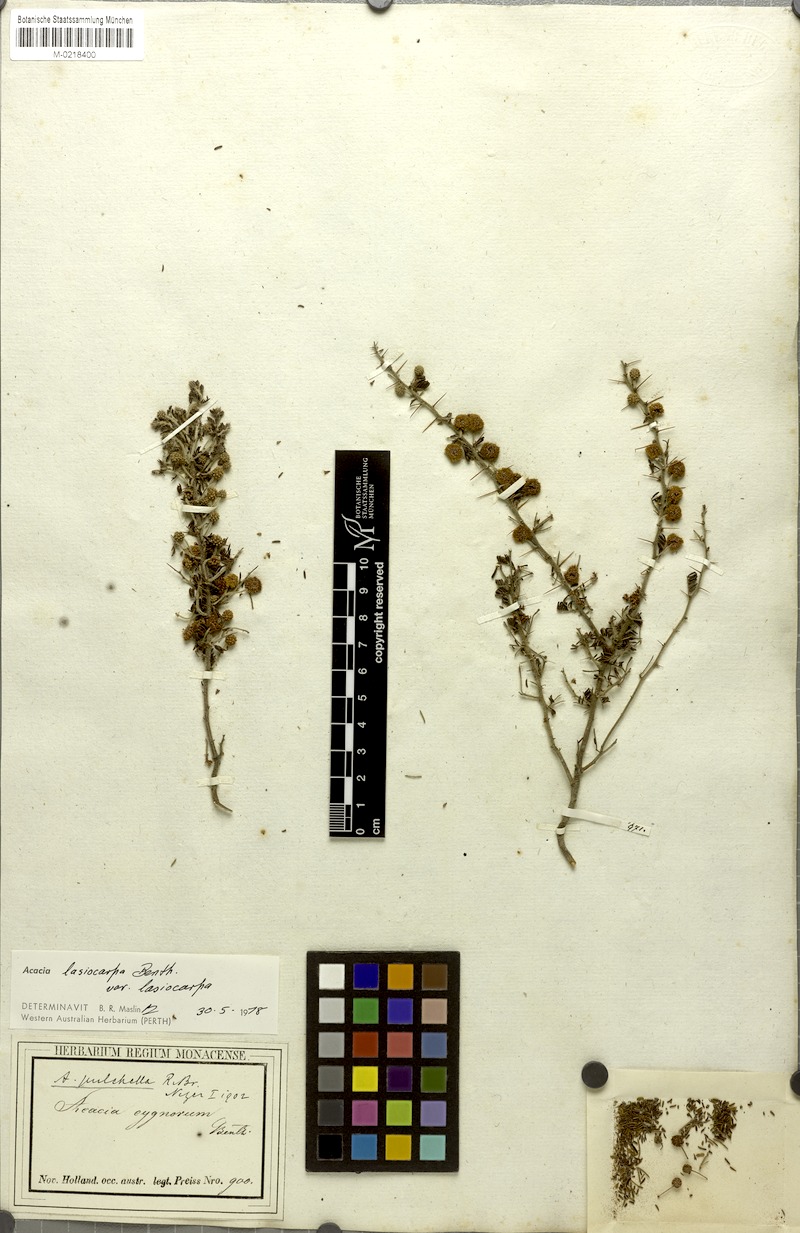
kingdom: Plantae
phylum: Tracheophyta
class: Magnoliopsida
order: Fabales
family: Fabaceae
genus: Acacia
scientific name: Acacia lasiocarpa
